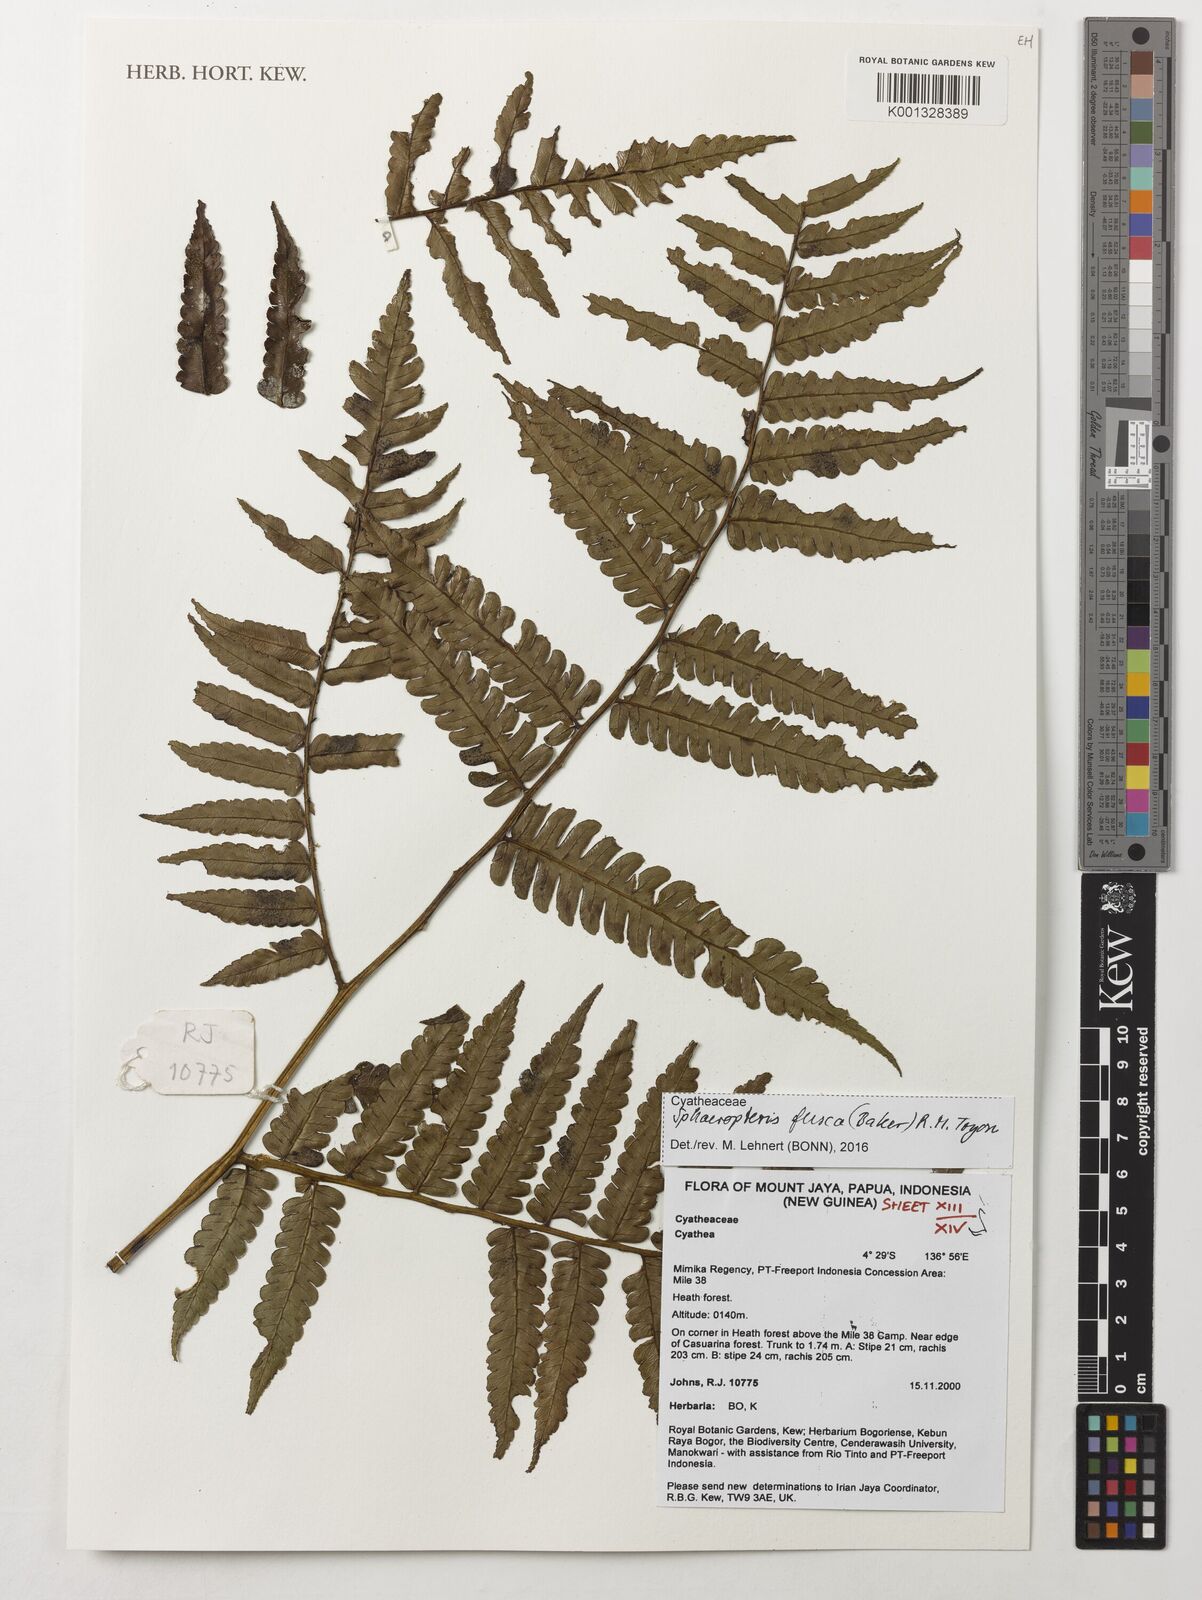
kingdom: Plantae
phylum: Tracheophyta
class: Polypodiopsida
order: Cyatheales
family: Cyatheaceae
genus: Sphaeropteris
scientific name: Sphaeropteris fusca
